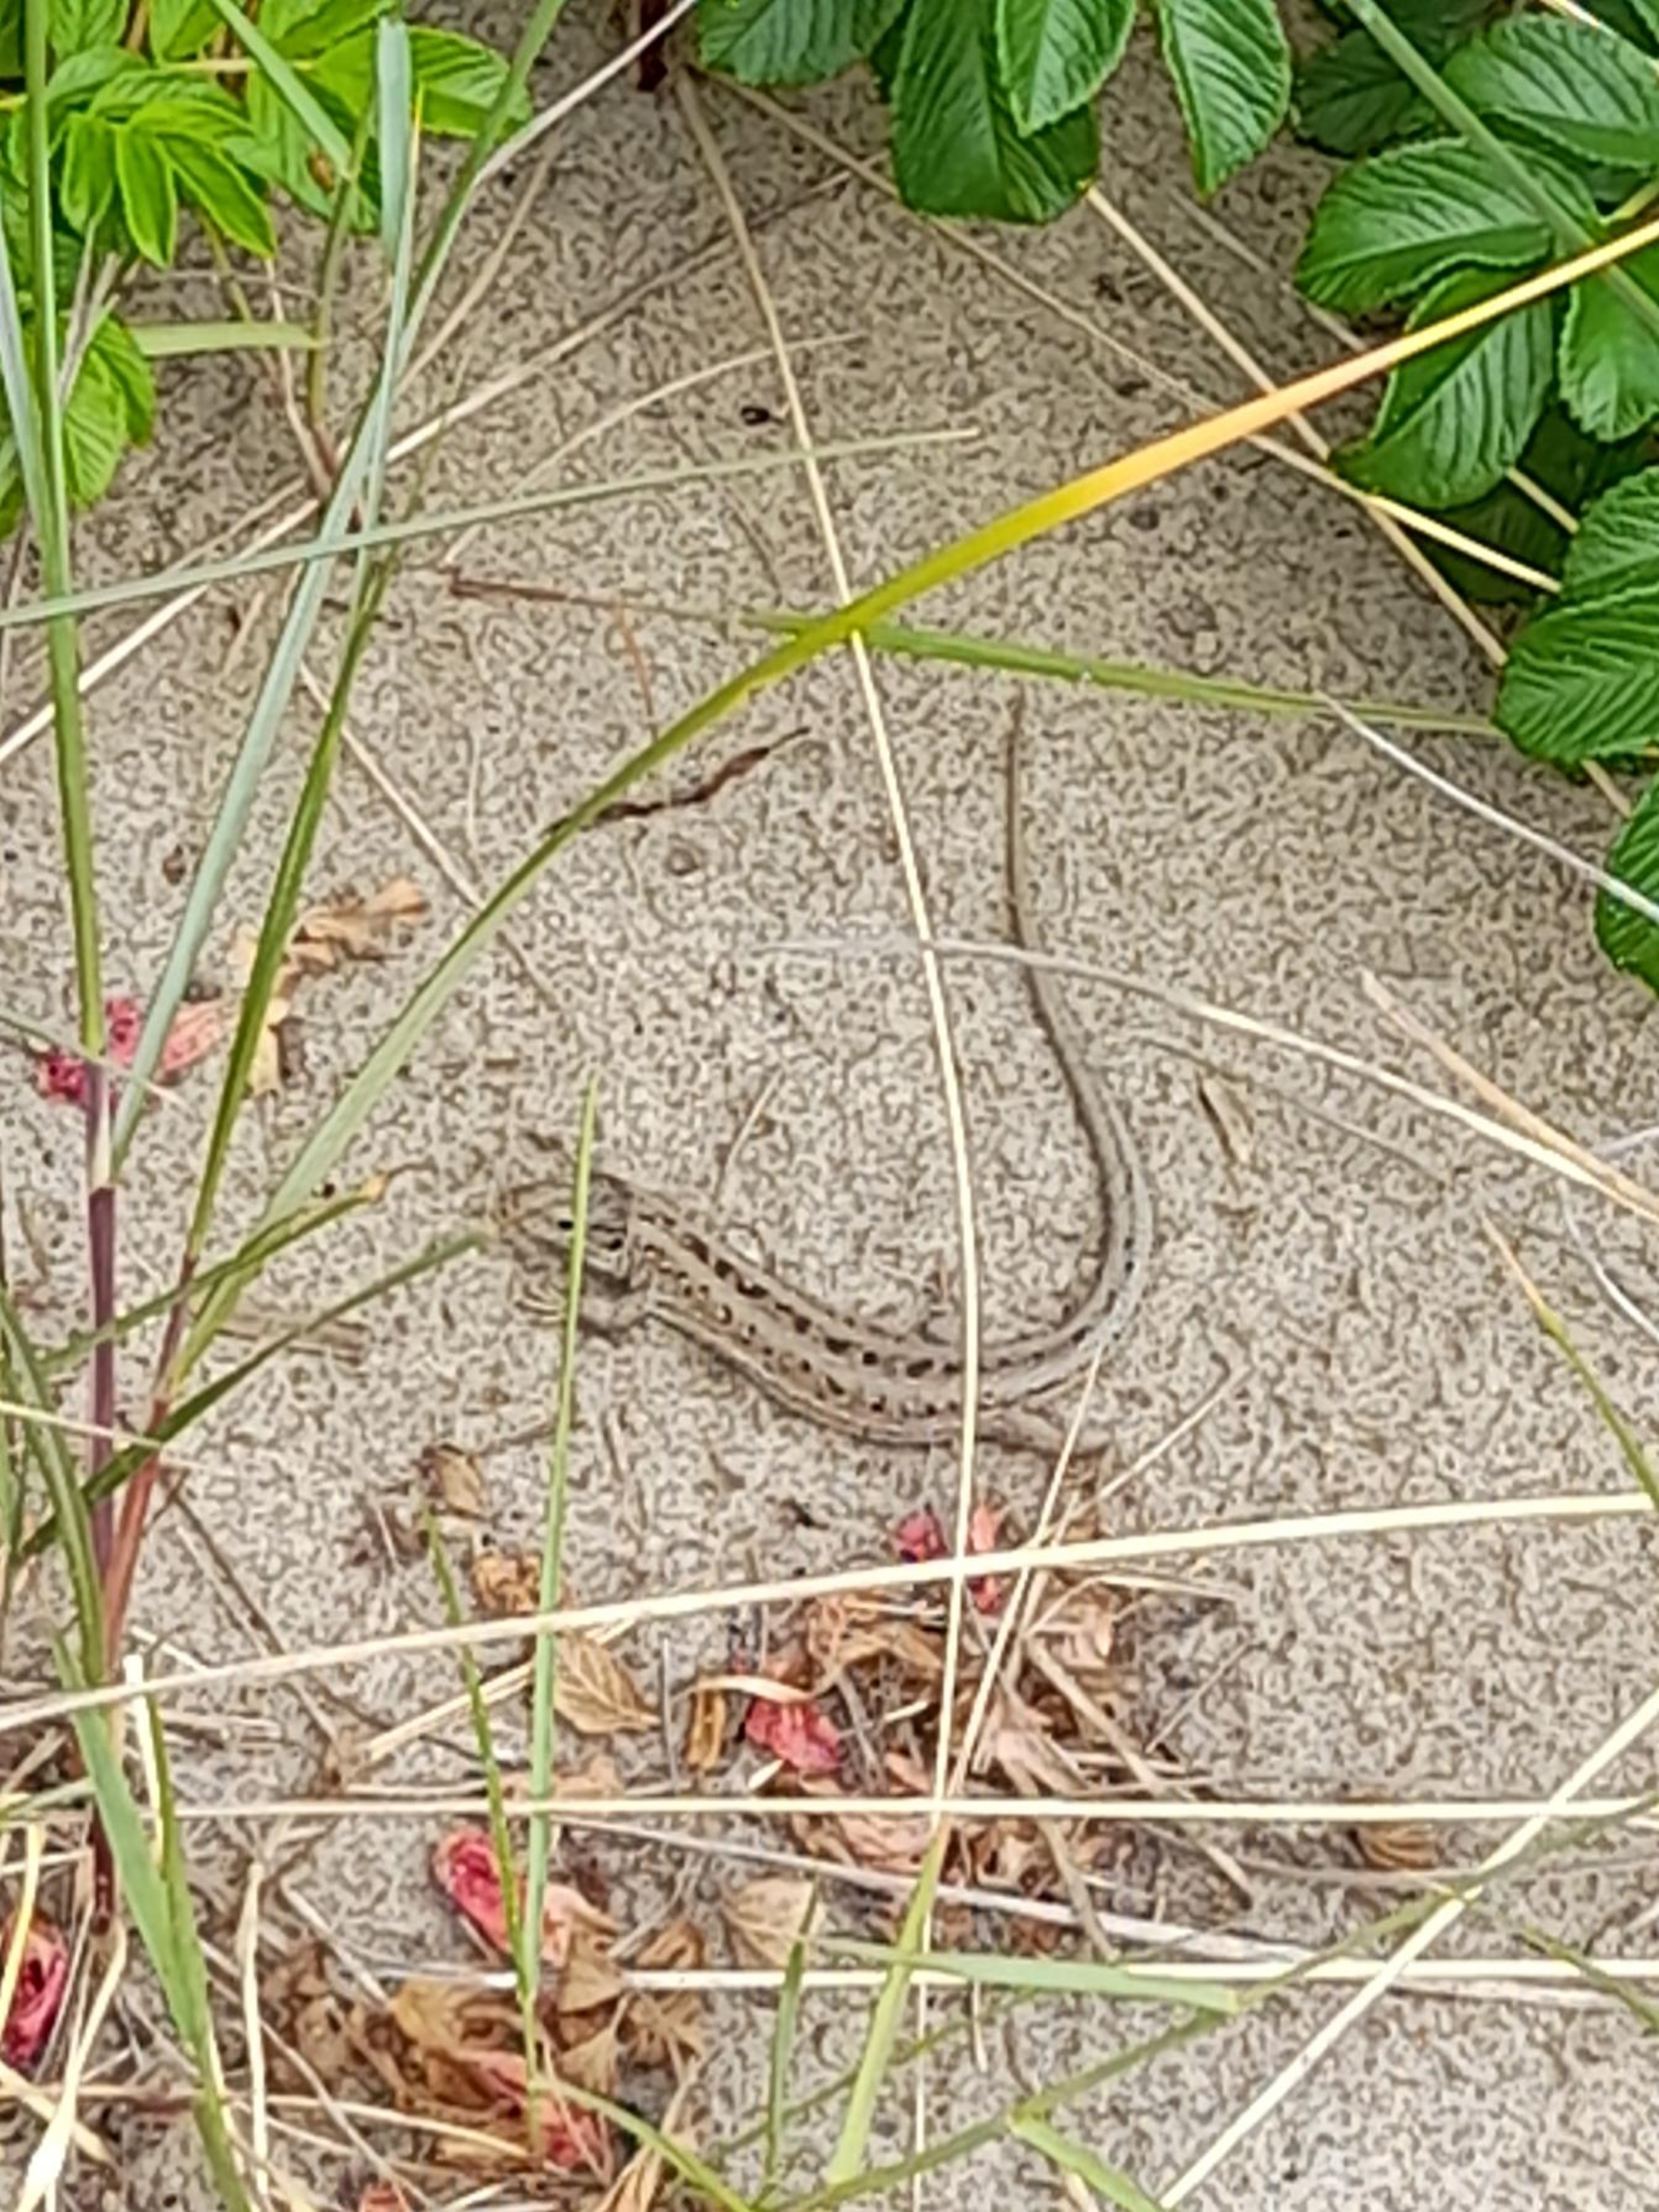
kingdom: Animalia
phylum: Chordata
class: Squamata
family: Lacertidae
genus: Lacerta
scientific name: Lacerta agilis
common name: Markfirben
